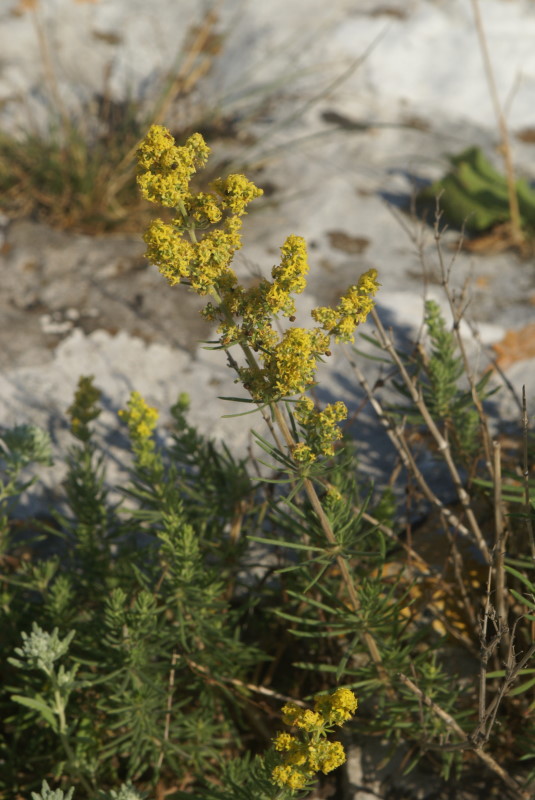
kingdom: Plantae
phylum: Tracheophyta
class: Magnoliopsida
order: Gentianales
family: Rubiaceae
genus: Galium
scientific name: Galium verum
